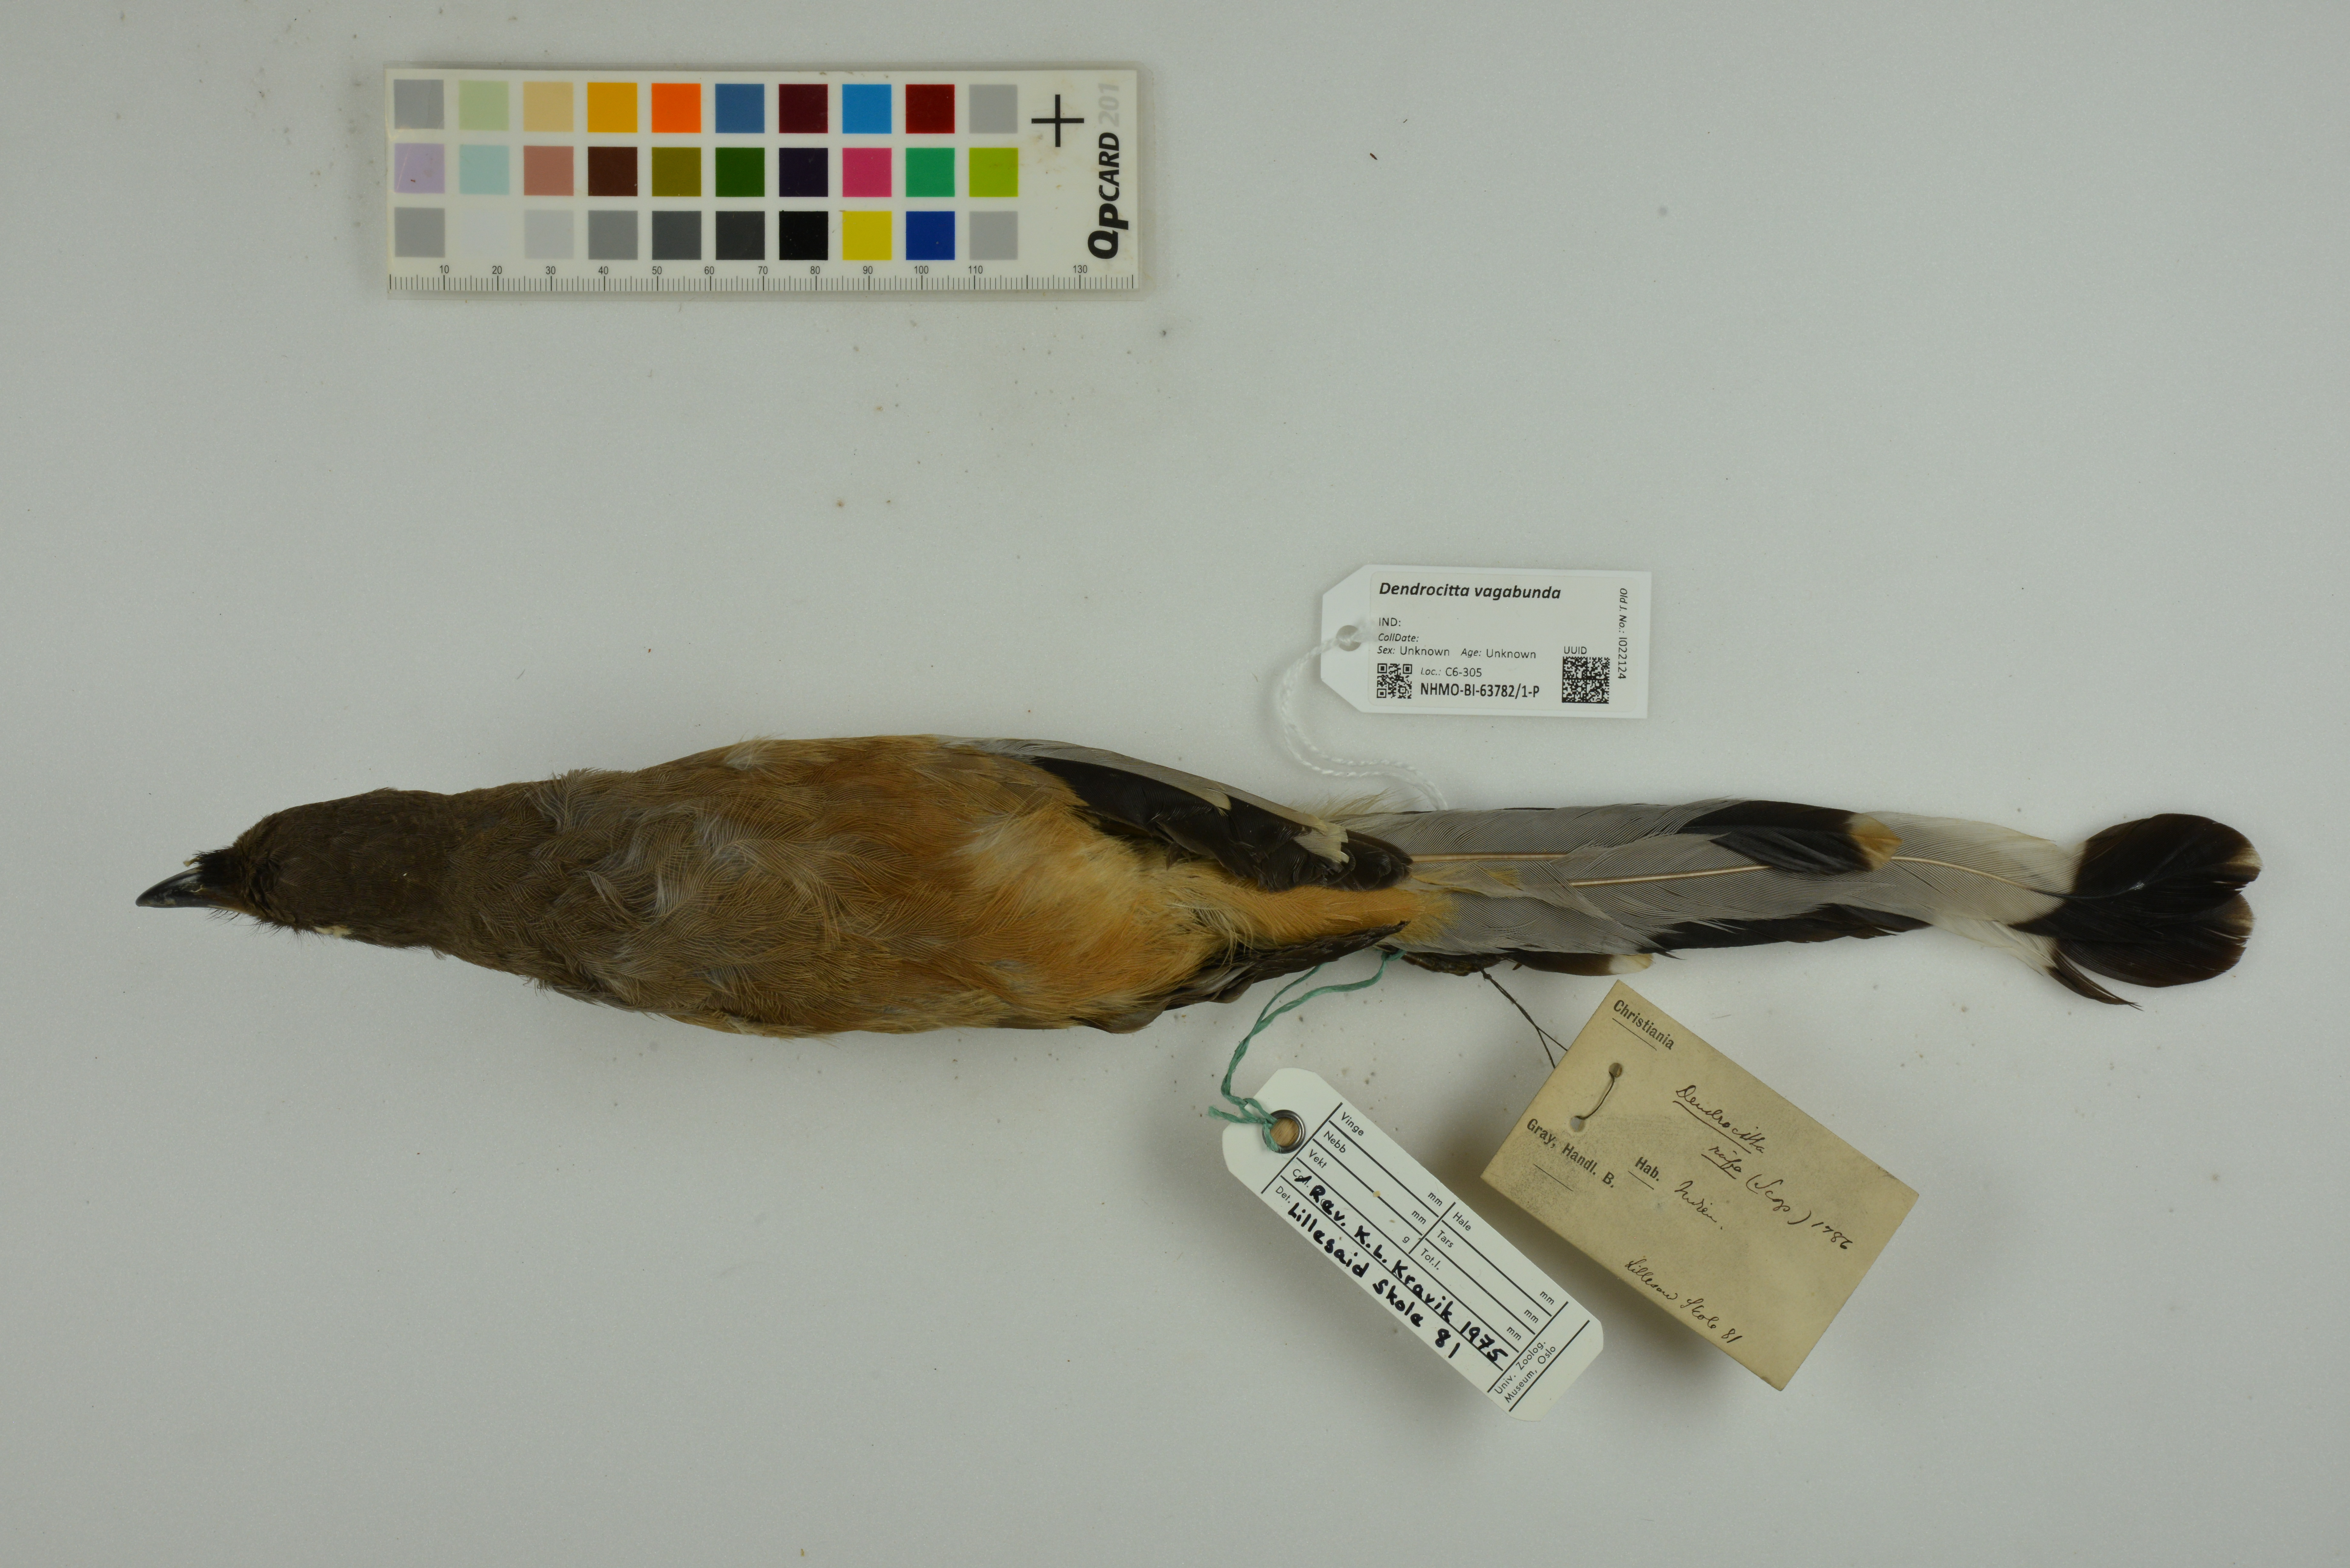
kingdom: Animalia
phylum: Chordata
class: Aves
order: Passeriformes
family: Corvidae
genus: Dendrocitta
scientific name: Dendrocitta vagabunda
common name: Rufous treepie
